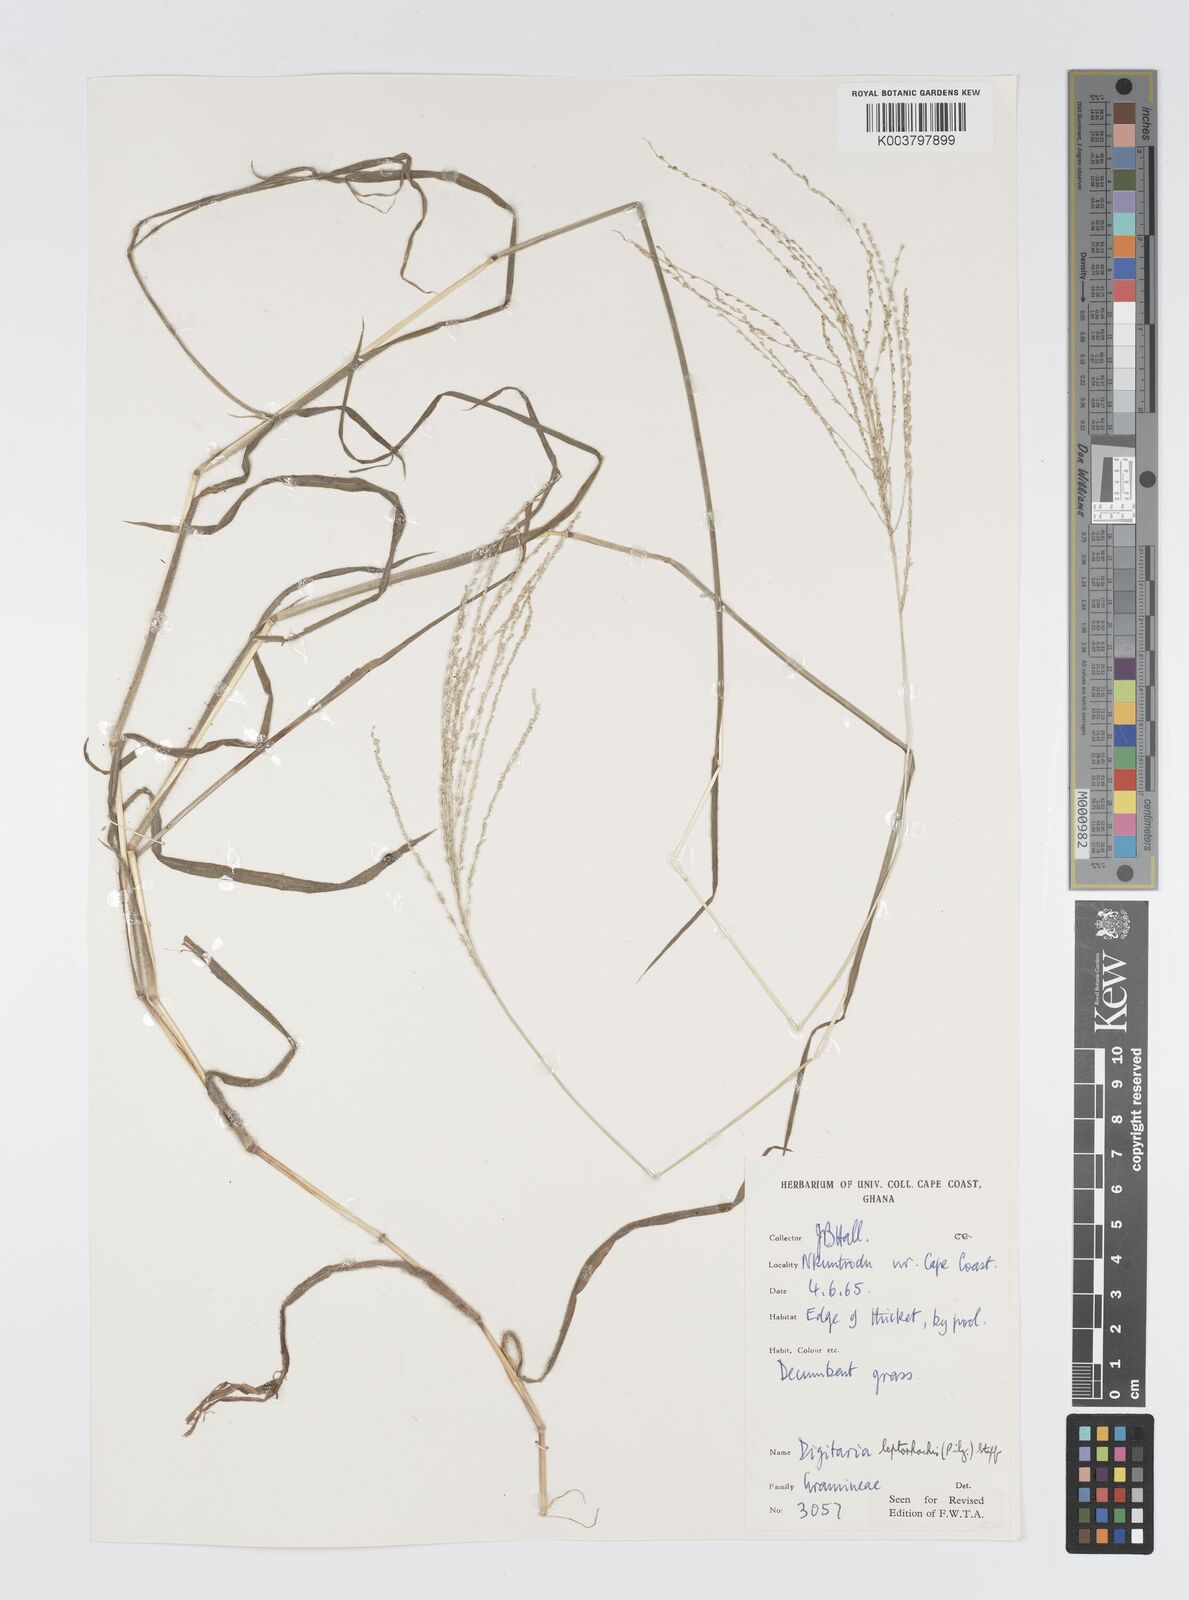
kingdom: Plantae
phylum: Tracheophyta
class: Liliopsida
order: Poales
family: Poaceae
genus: Digitaria
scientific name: Digitaria leptorhachis
